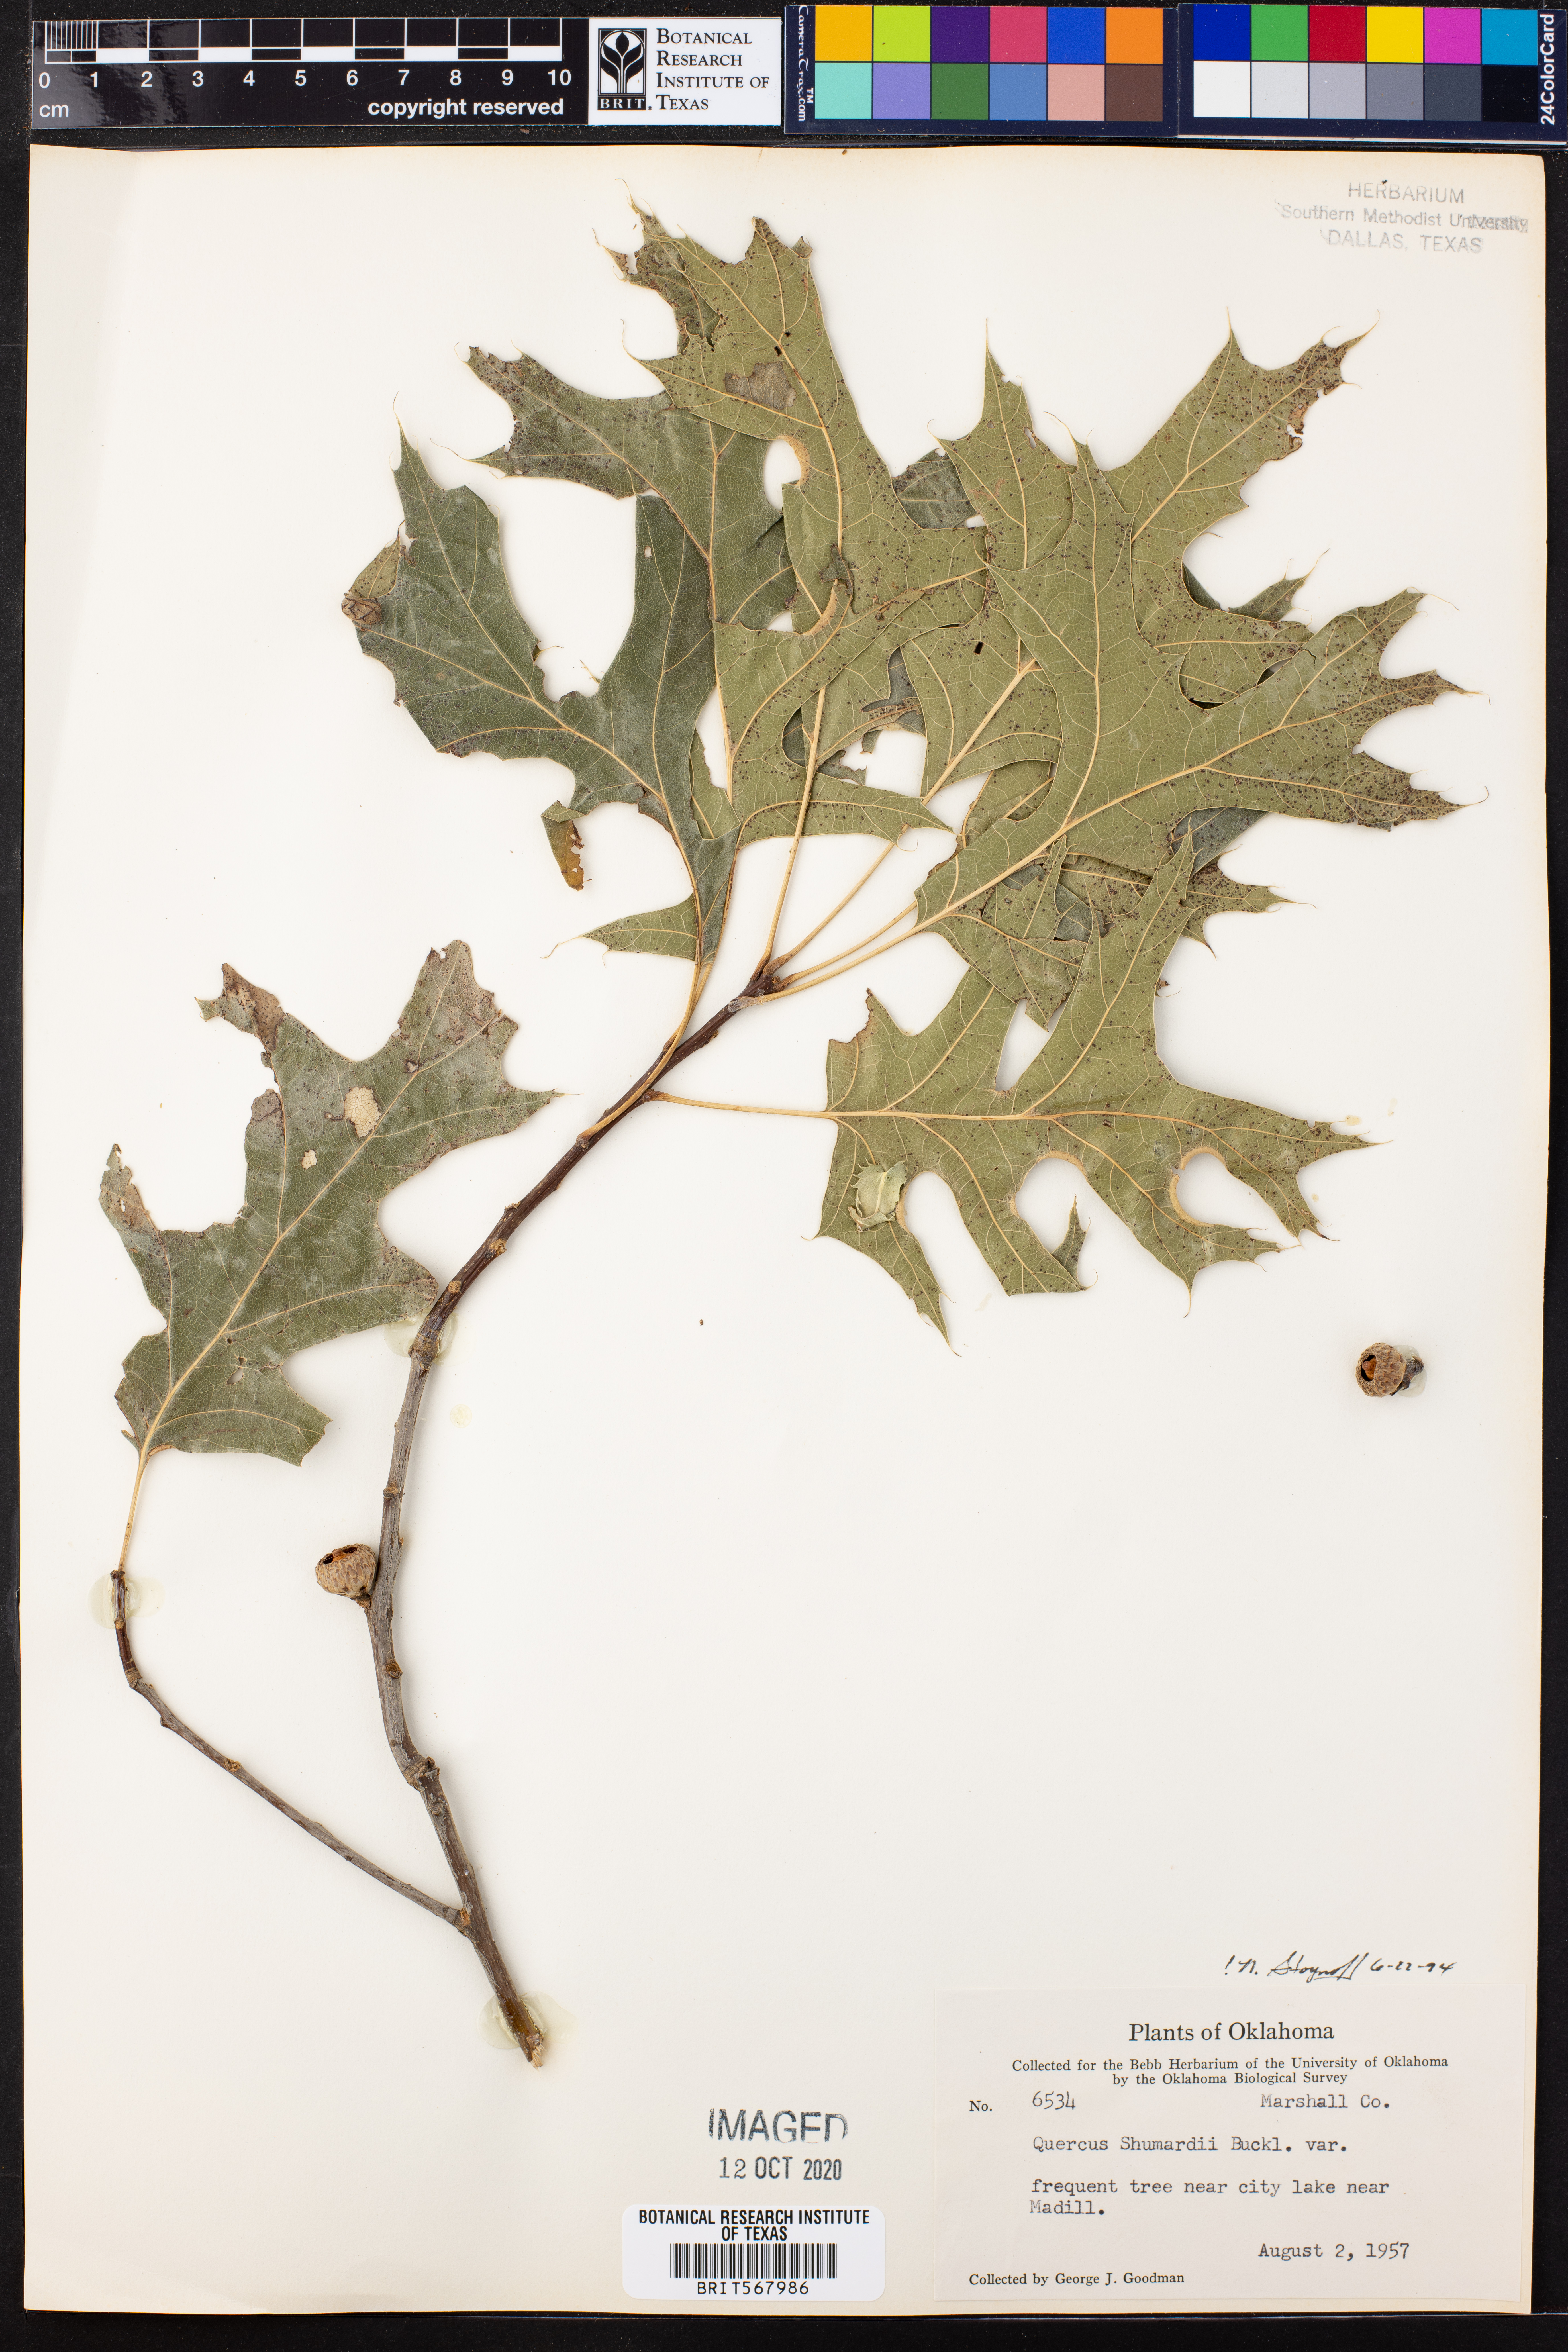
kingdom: Plantae
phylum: Tracheophyta
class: Magnoliopsida
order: Fagales
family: Fagaceae
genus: Quercus
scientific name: Quercus shumardii
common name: Shumard oak
